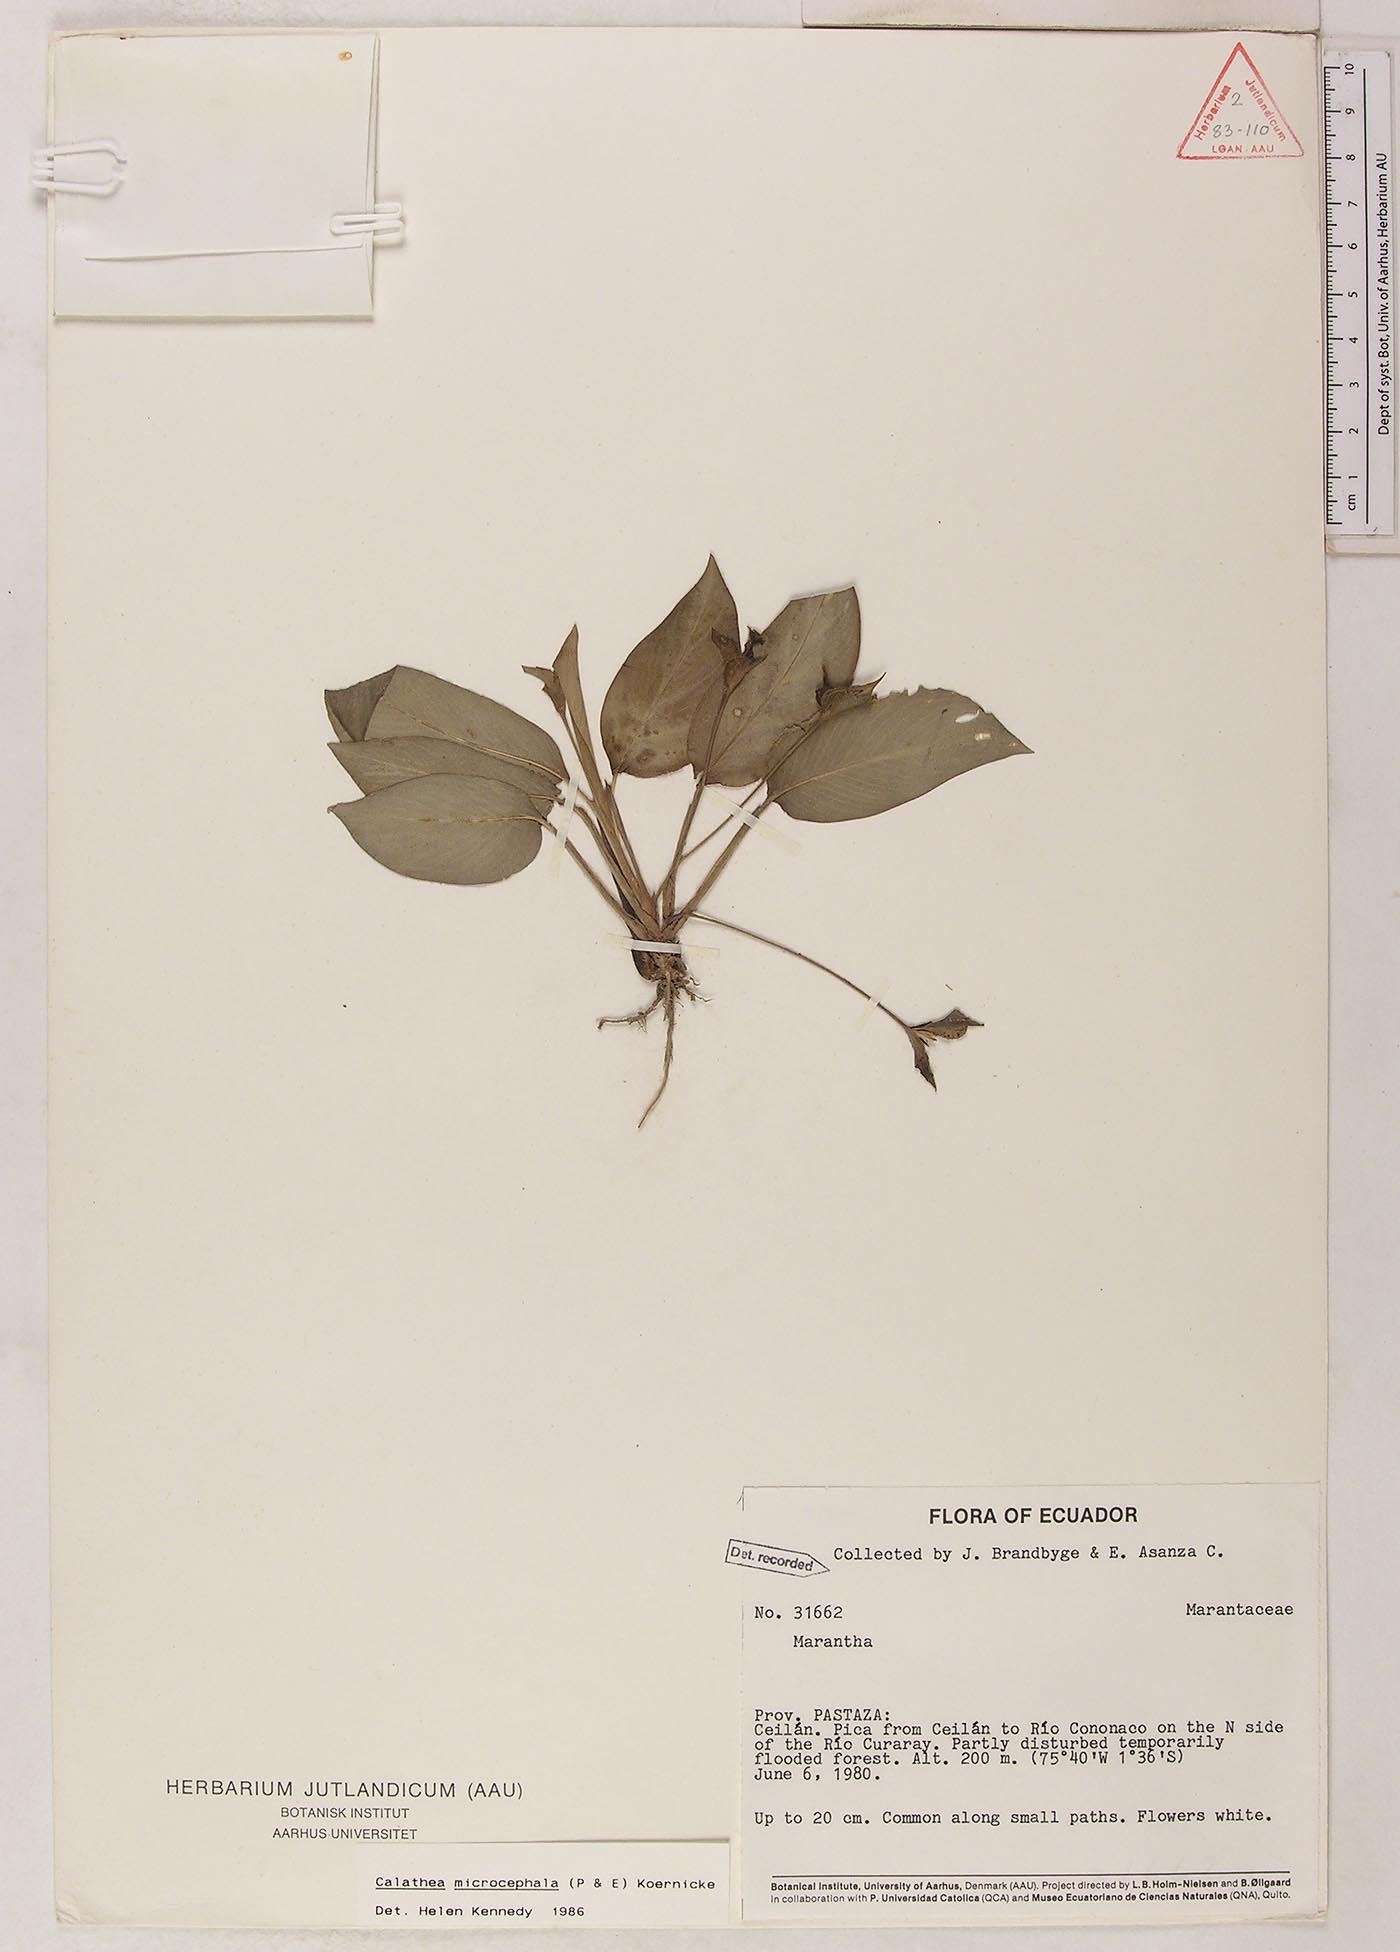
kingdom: Plantae
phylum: Tracheophyta
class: Liliopsida
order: Zingiberales
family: Marantaceae
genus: Goeppertia
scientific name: Goeppertia microcephala
